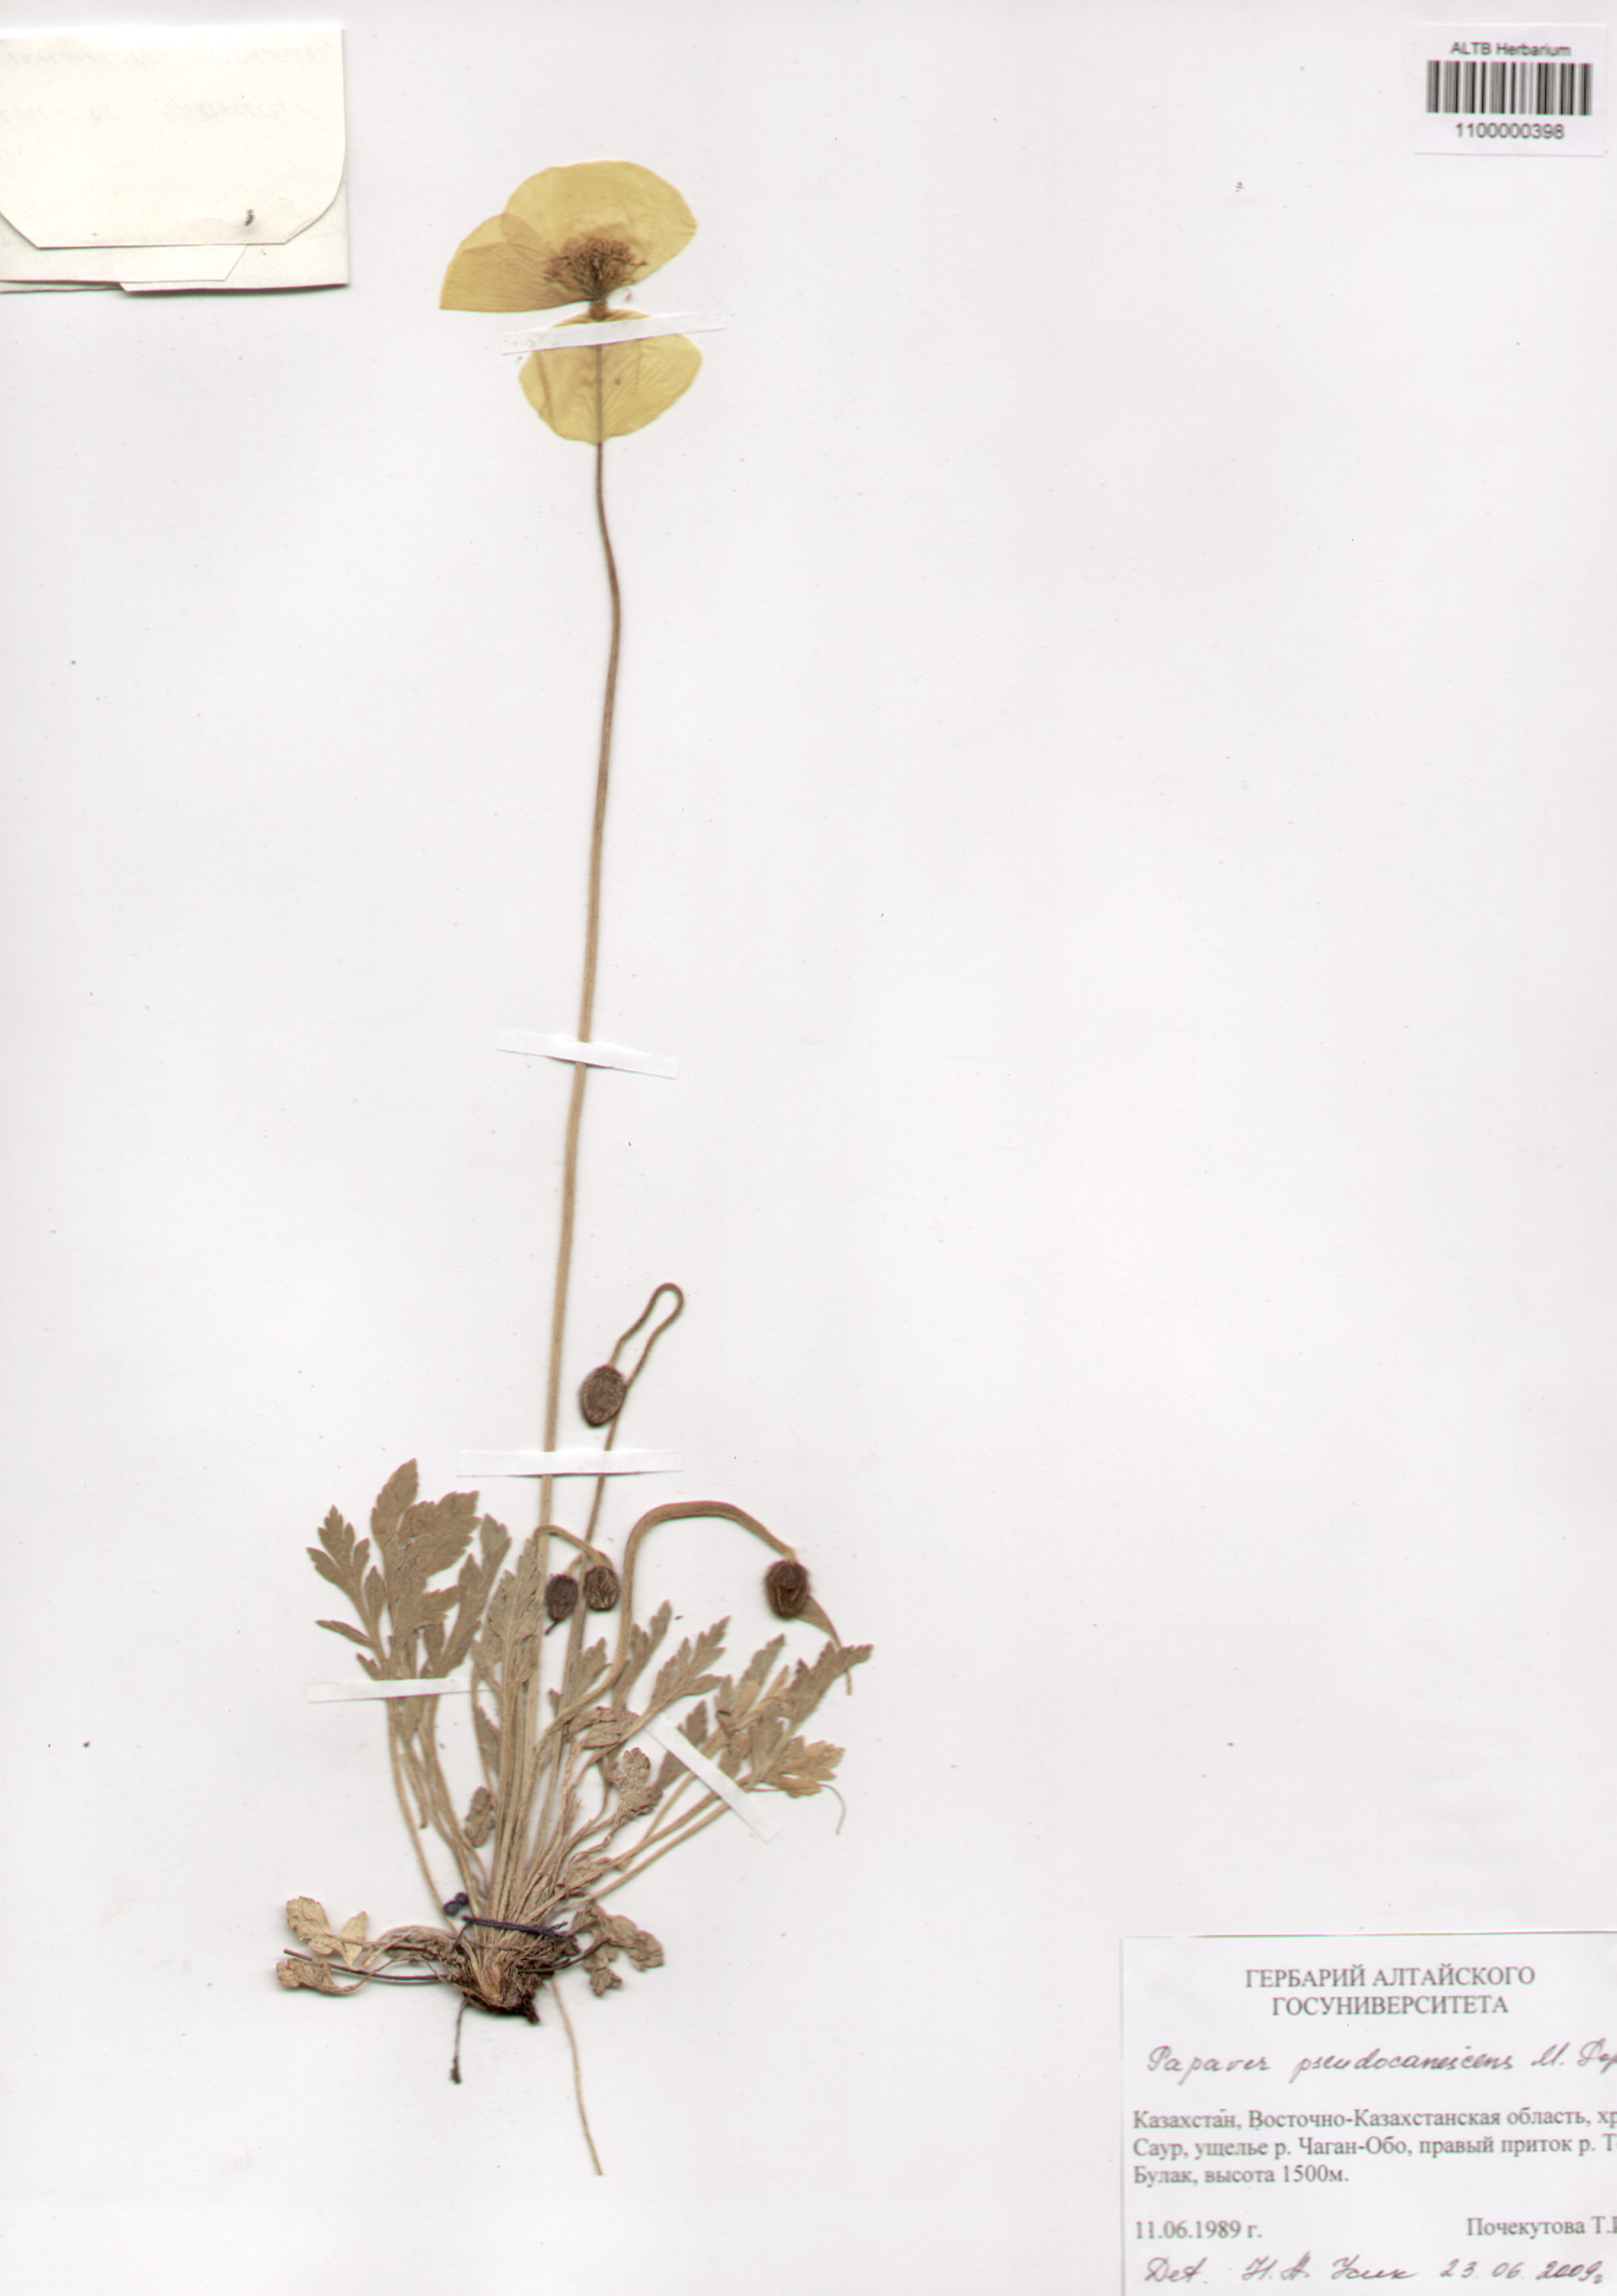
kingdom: Plantae
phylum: Tracheophyta
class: Magnoliopsida
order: Ranunculales
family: Papaveraceae
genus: Papaver
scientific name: Papaver canescens
